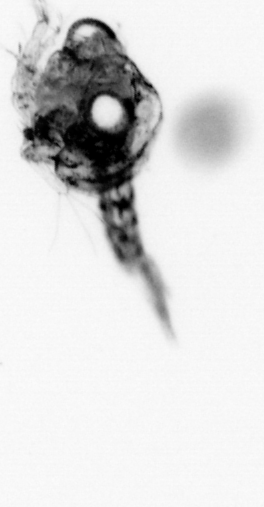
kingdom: Animalia
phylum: Arthropoda
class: Malacostraca
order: Decapoda
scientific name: Decapoda
